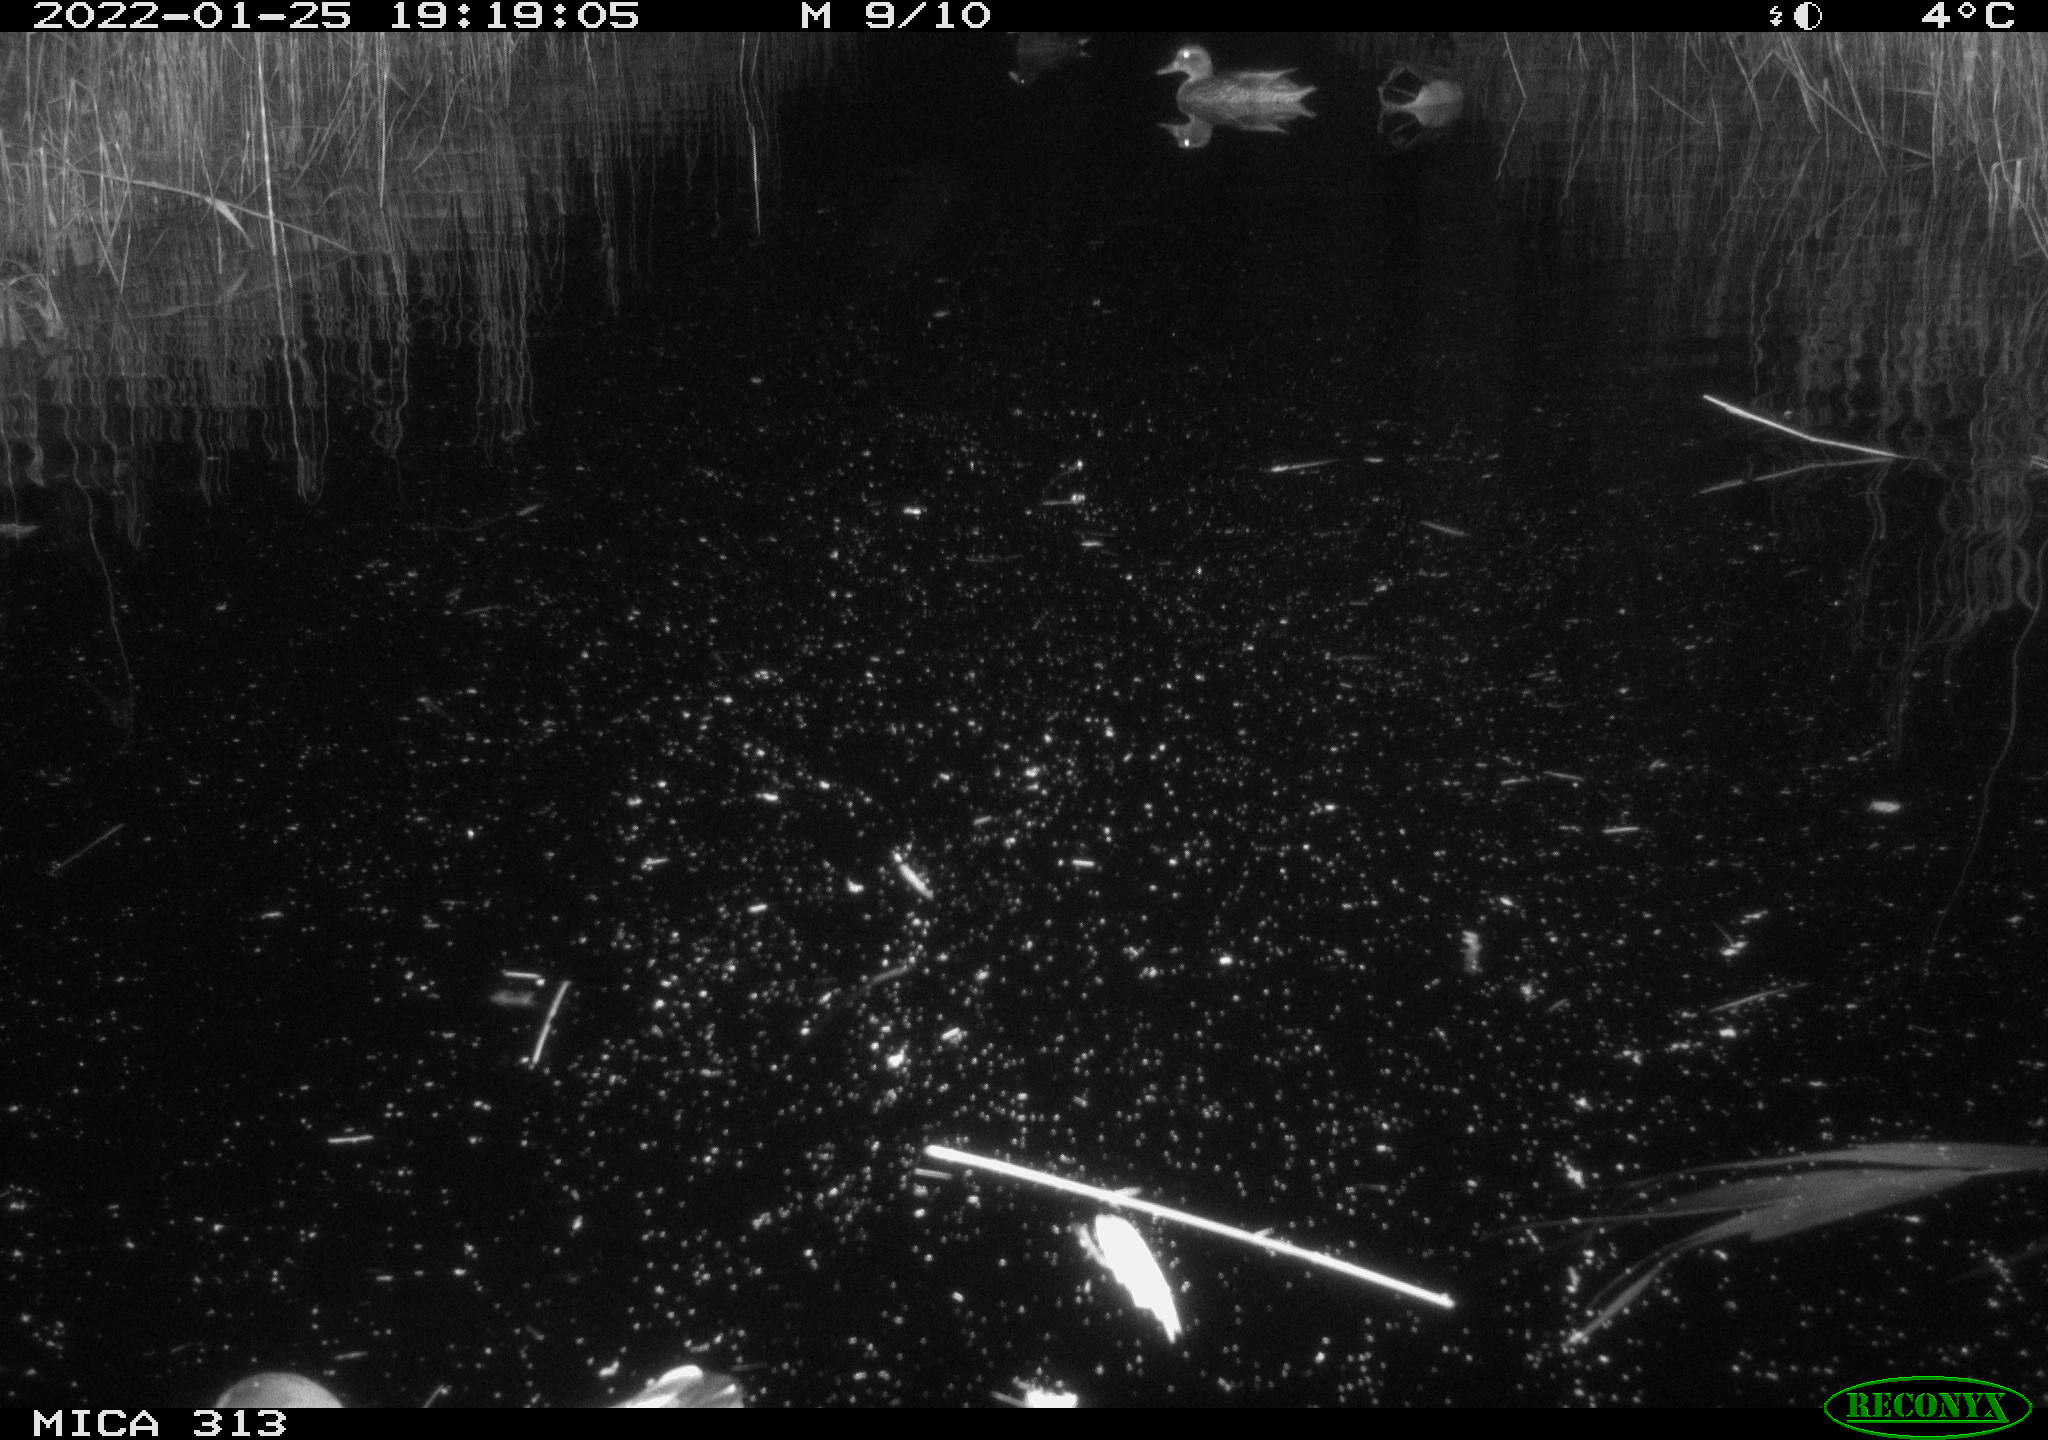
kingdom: Animalia
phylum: Chordata
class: Aves
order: Gruiformes
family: Rallidae
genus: Fulica
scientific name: Fulica atra
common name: Eurasian coot
